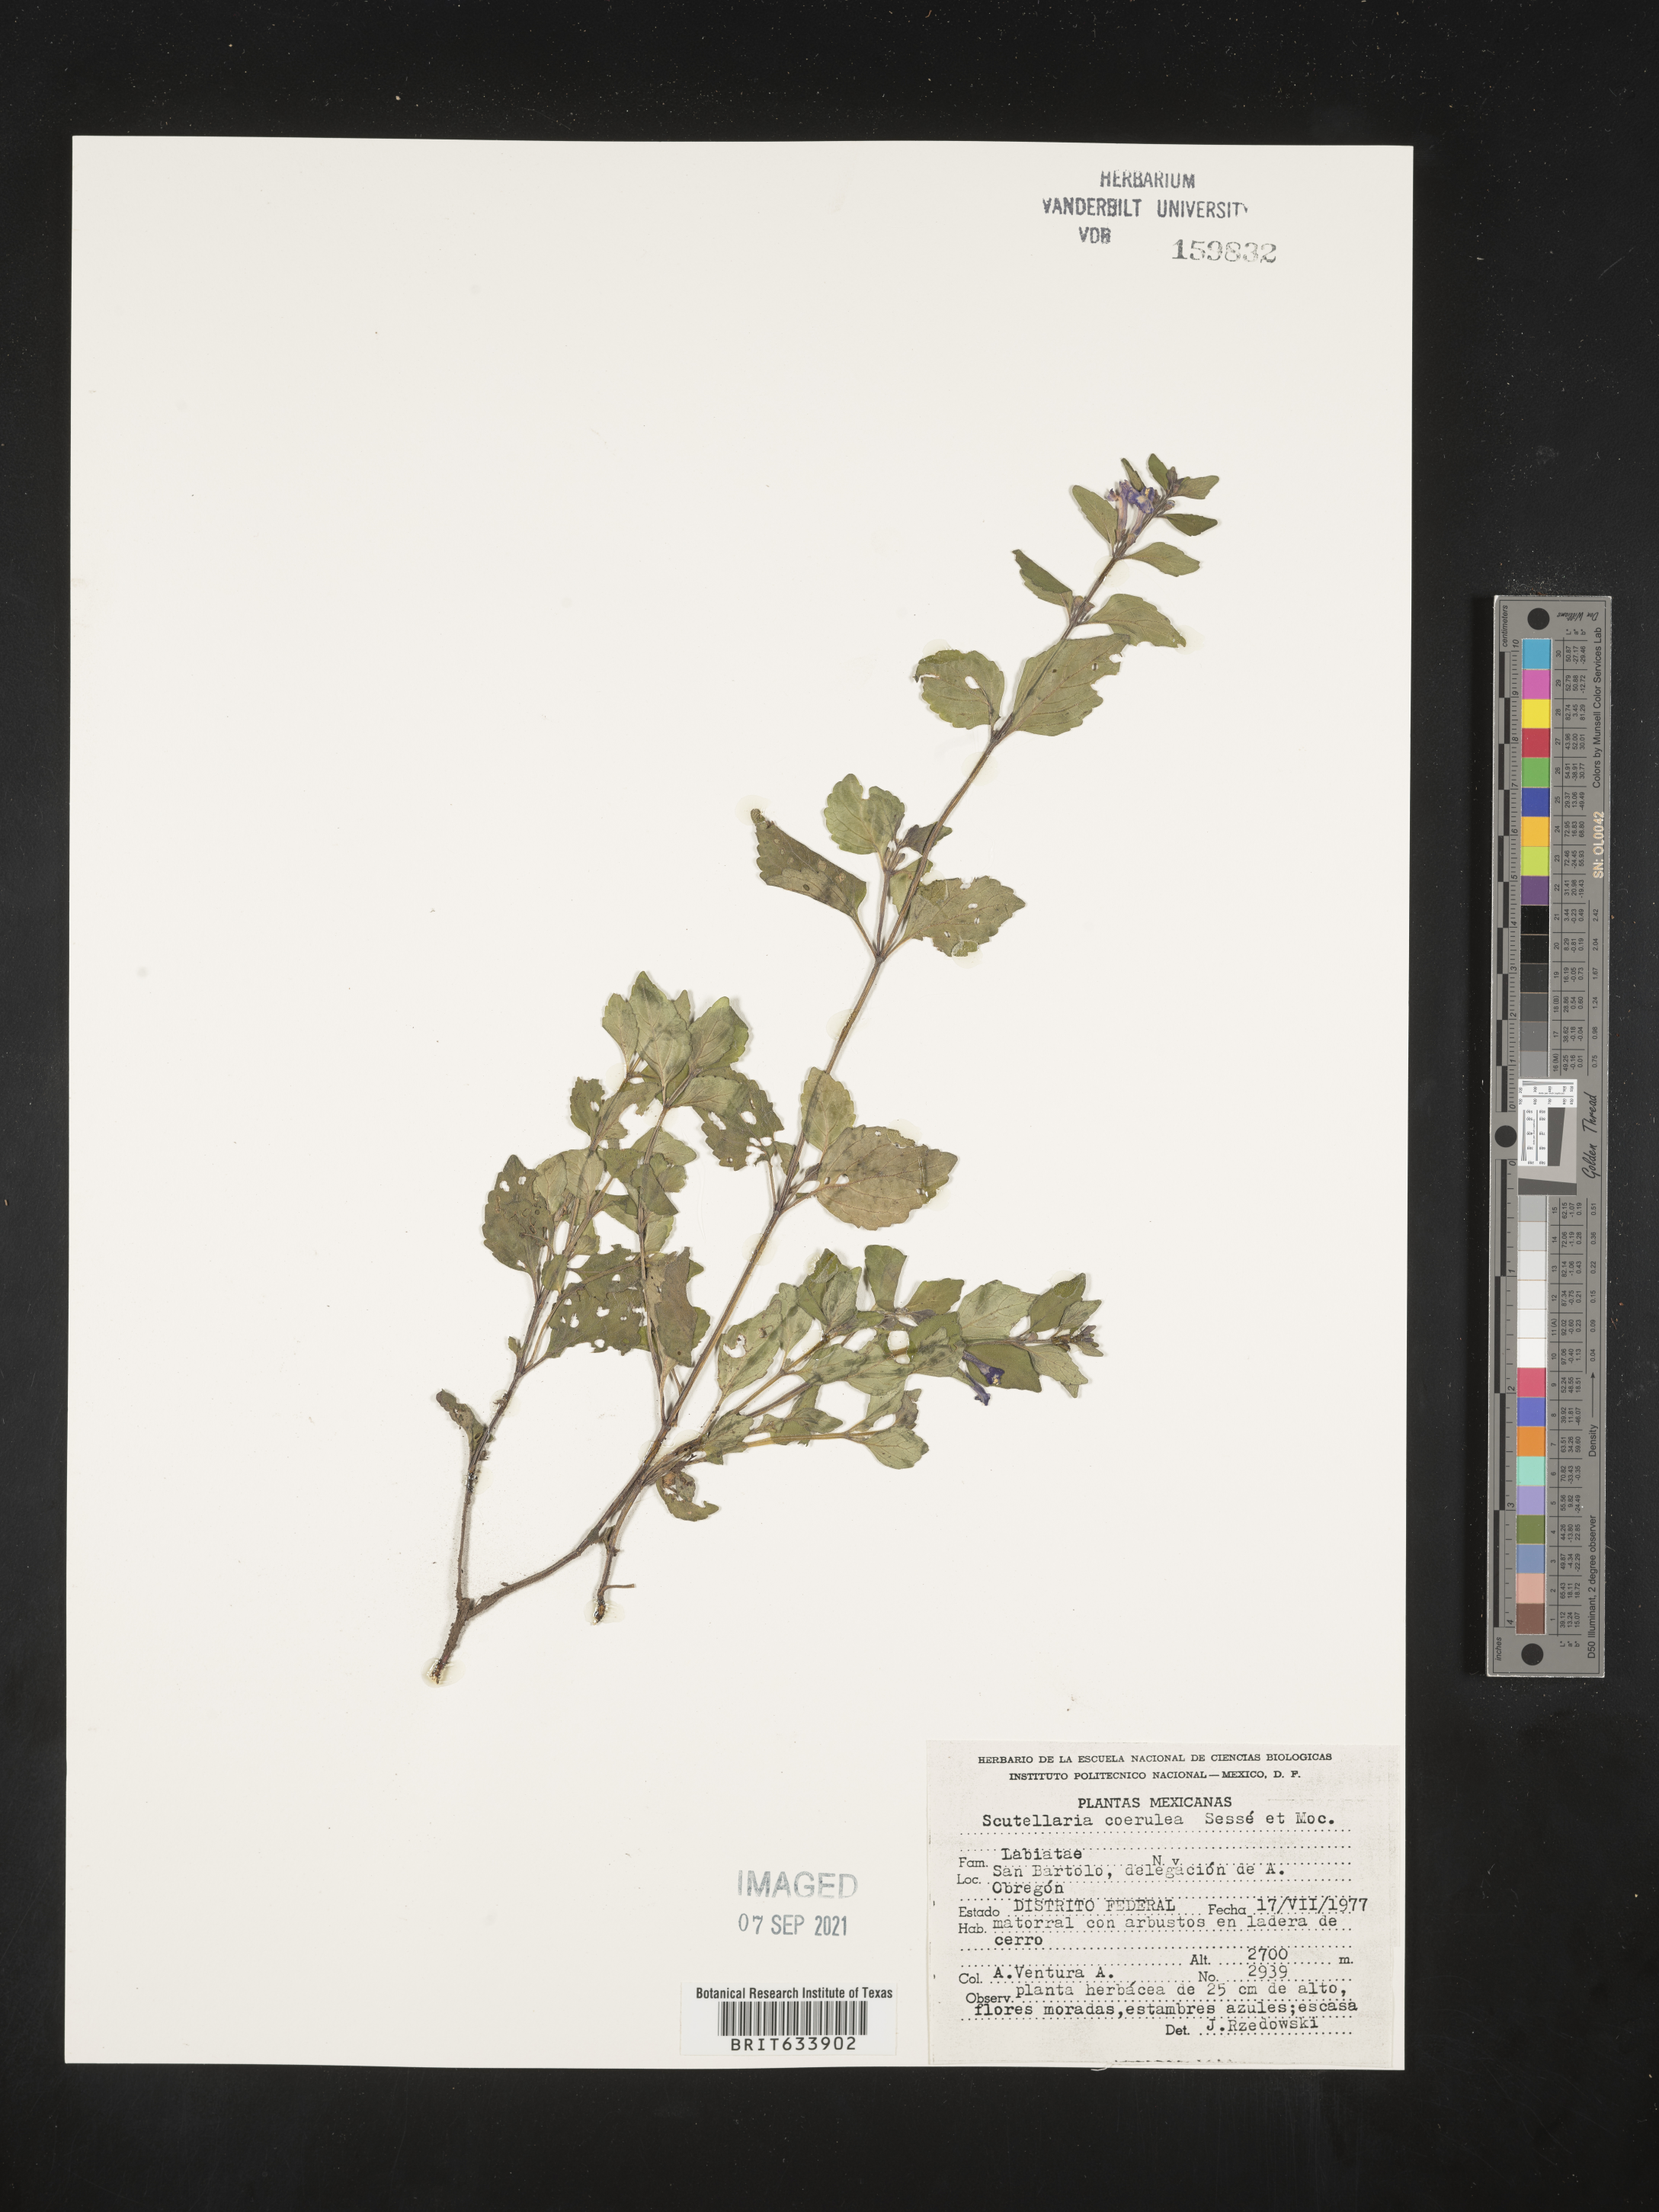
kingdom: Plantae
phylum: Tracheophyta
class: Magnoliopsida
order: Lamiales
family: Lamiaceae
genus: Scutellaria
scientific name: Scutellaria
